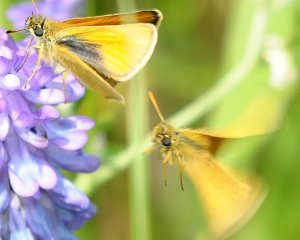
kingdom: Animalia
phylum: Arthropoda
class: Insecta
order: Lepidoptera
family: Hesperiidae
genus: Thymelicus
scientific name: Thymelicus lineola
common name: European Skipper
